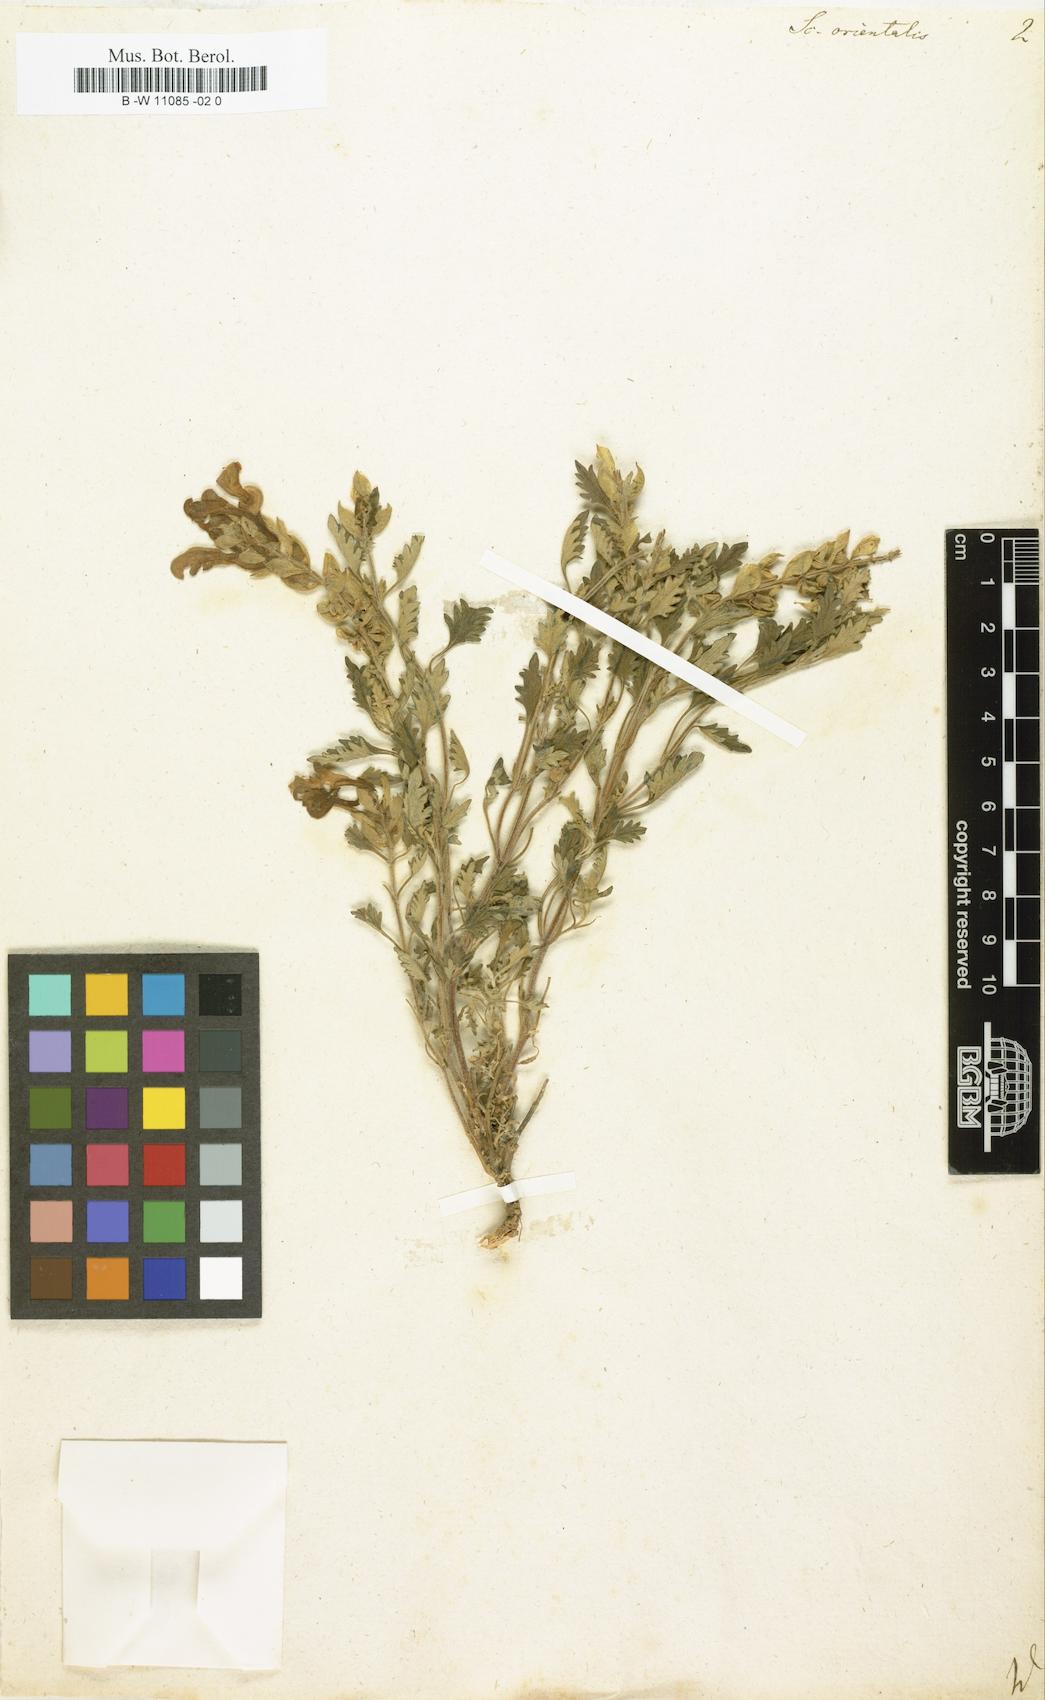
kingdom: Plantae
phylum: Tracheophyta
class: Magnoliopsida
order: Lamiales
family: Lamiaceae
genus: Scutellaria
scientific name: Scutellaria orientalis
